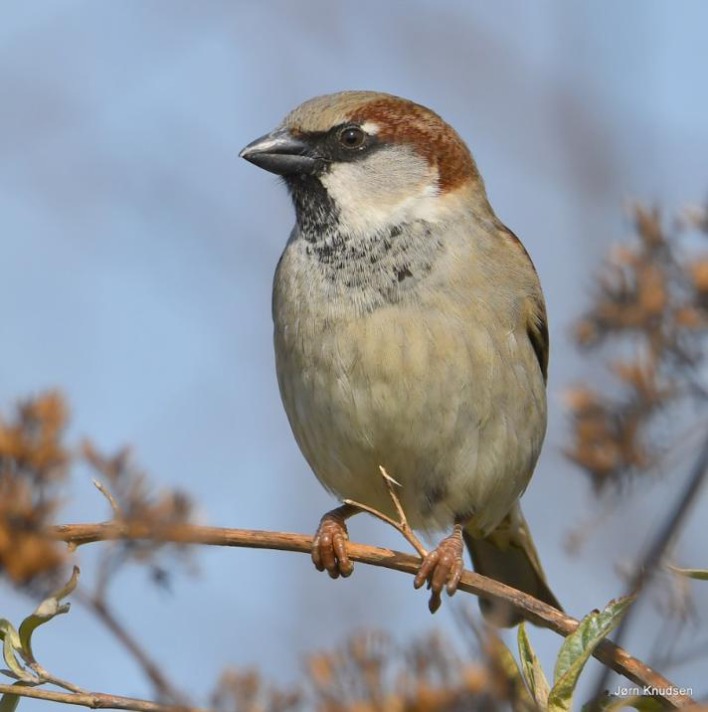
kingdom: Animalia
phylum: Chordata
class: Aves
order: Passeriformes
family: Passeridae
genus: Passer
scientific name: Passer domesticus
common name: Gråspurv
